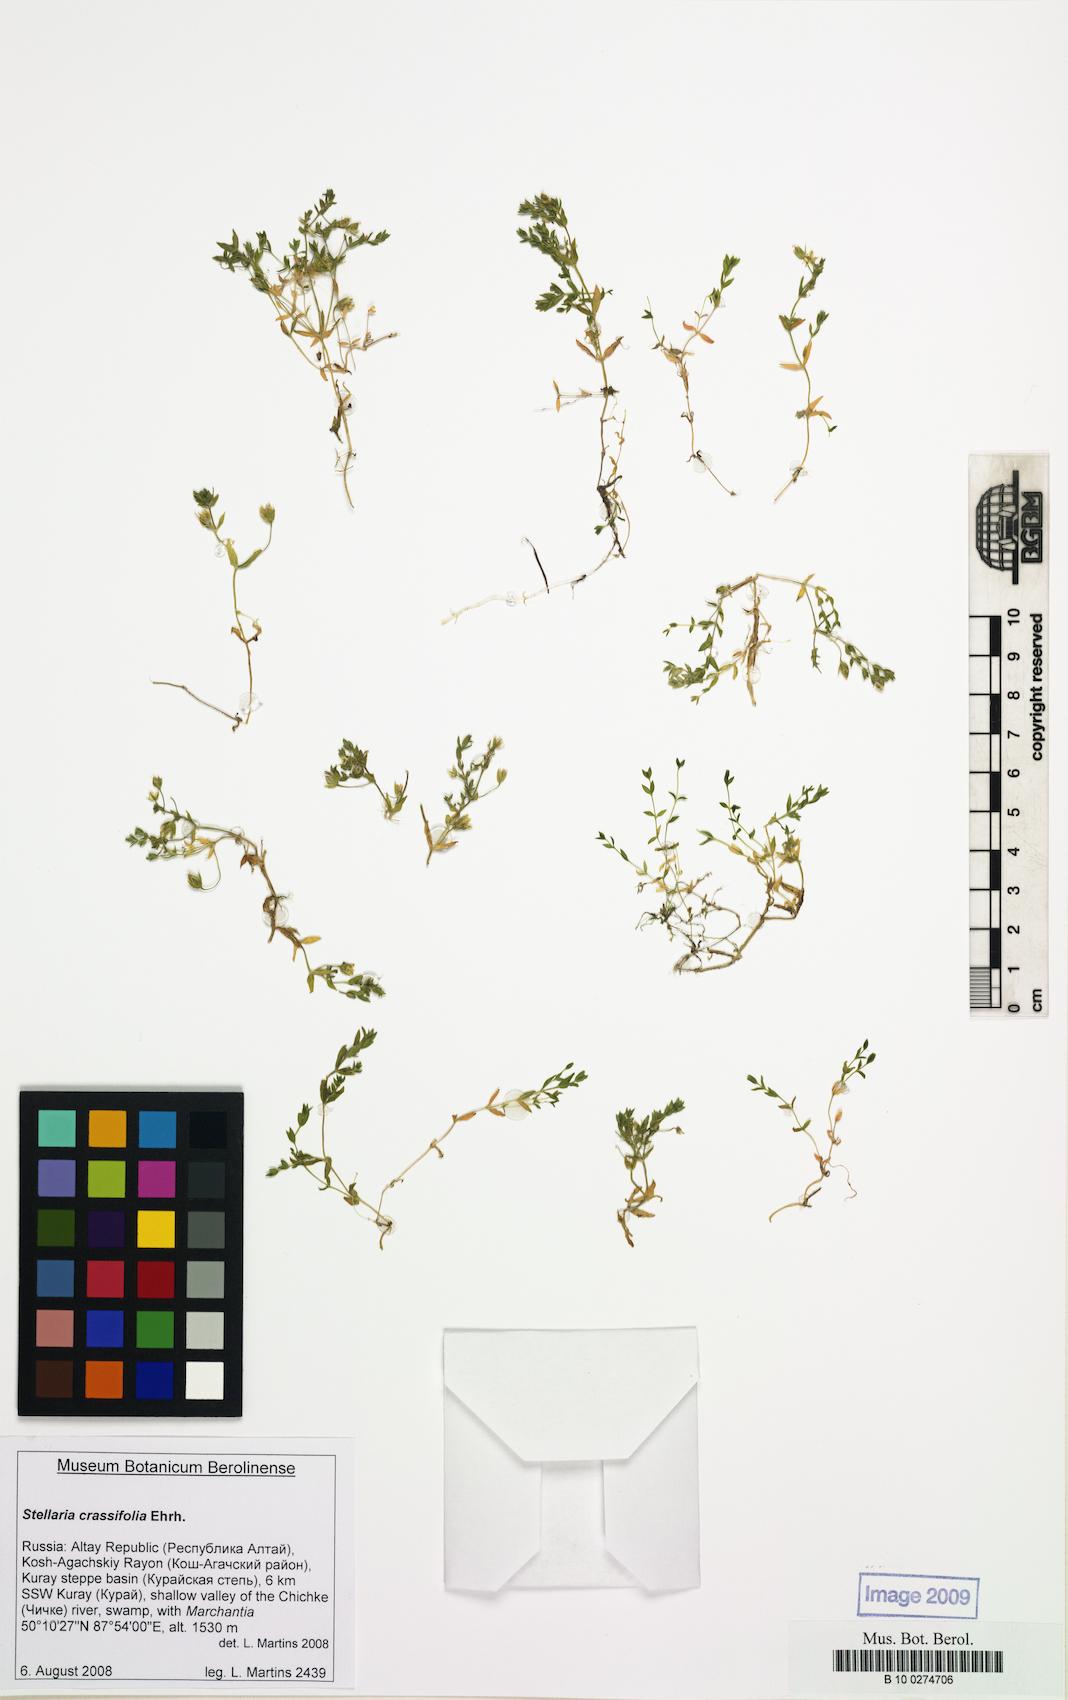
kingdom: Plantae
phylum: Tracheophyta
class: Magnoliopsida
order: Caryophyllales
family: Caryophyllaceae
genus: Stellaria
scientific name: Stellaria crassifolia
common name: Fleshy starwort
